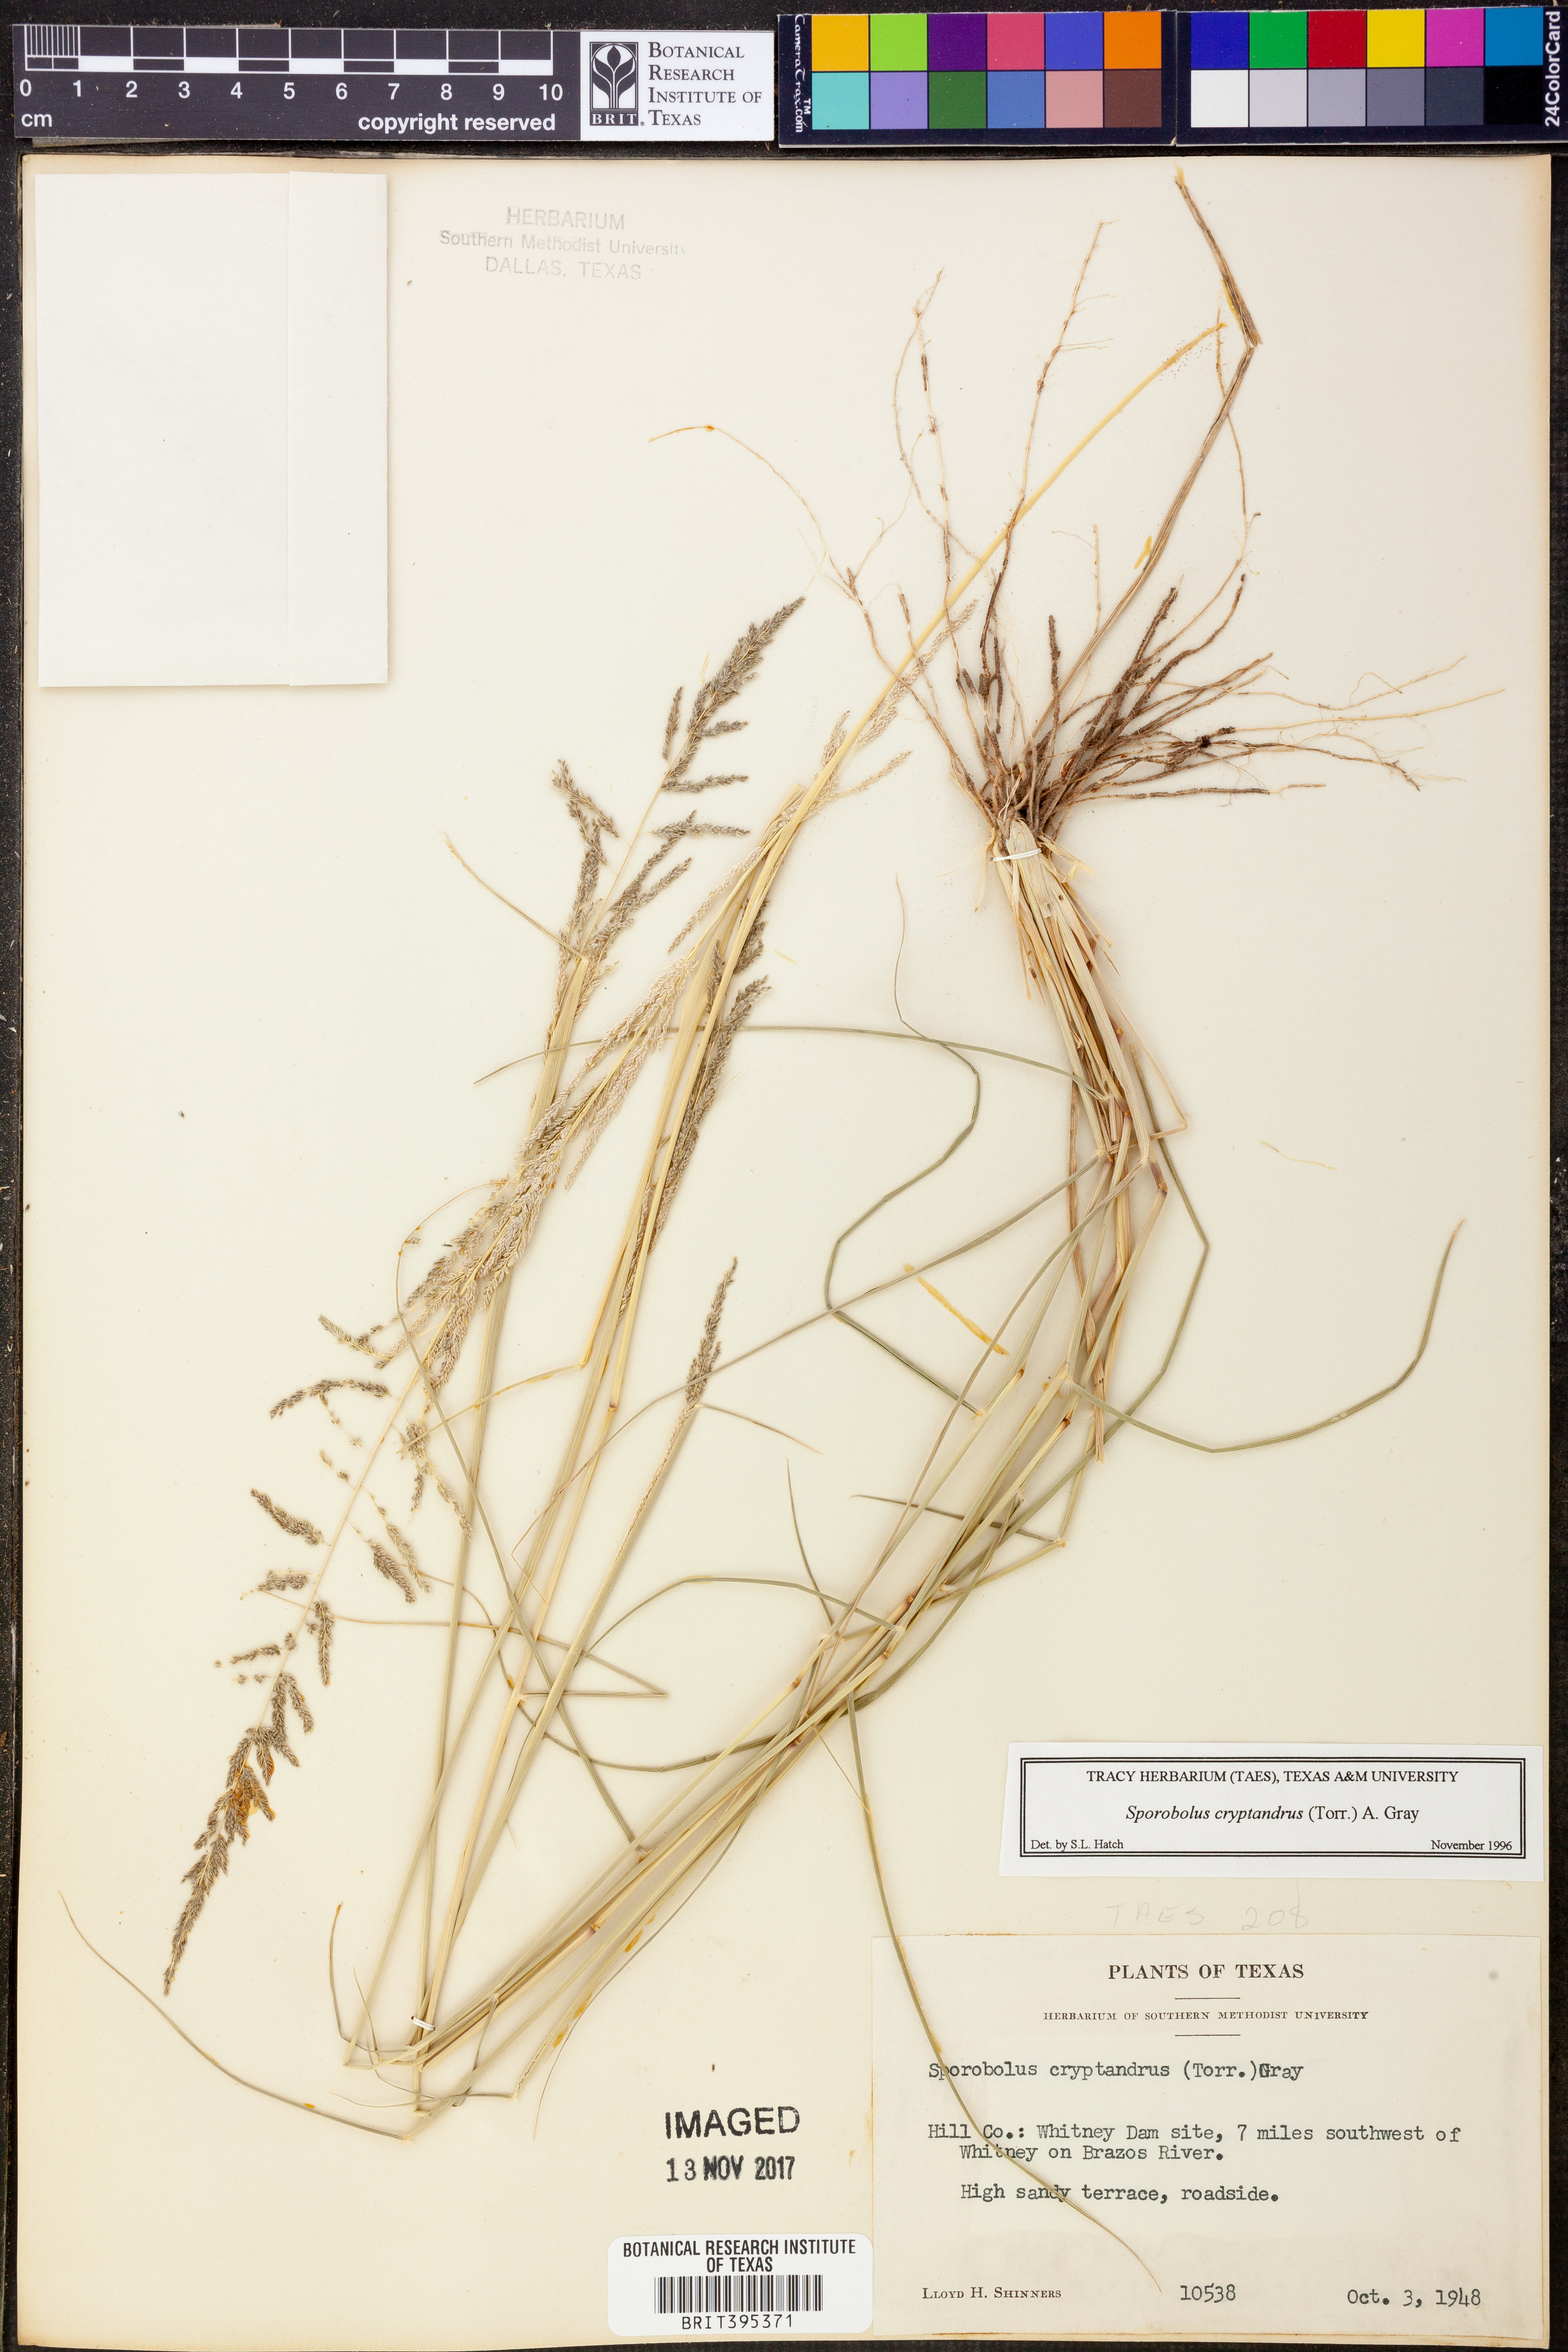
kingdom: Plantae
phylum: Tracheophyta
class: Liliopsida
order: Poales
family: Poaceae
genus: Sporobolus
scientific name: Sporobolus cryptandrus
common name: Sand dropseed
